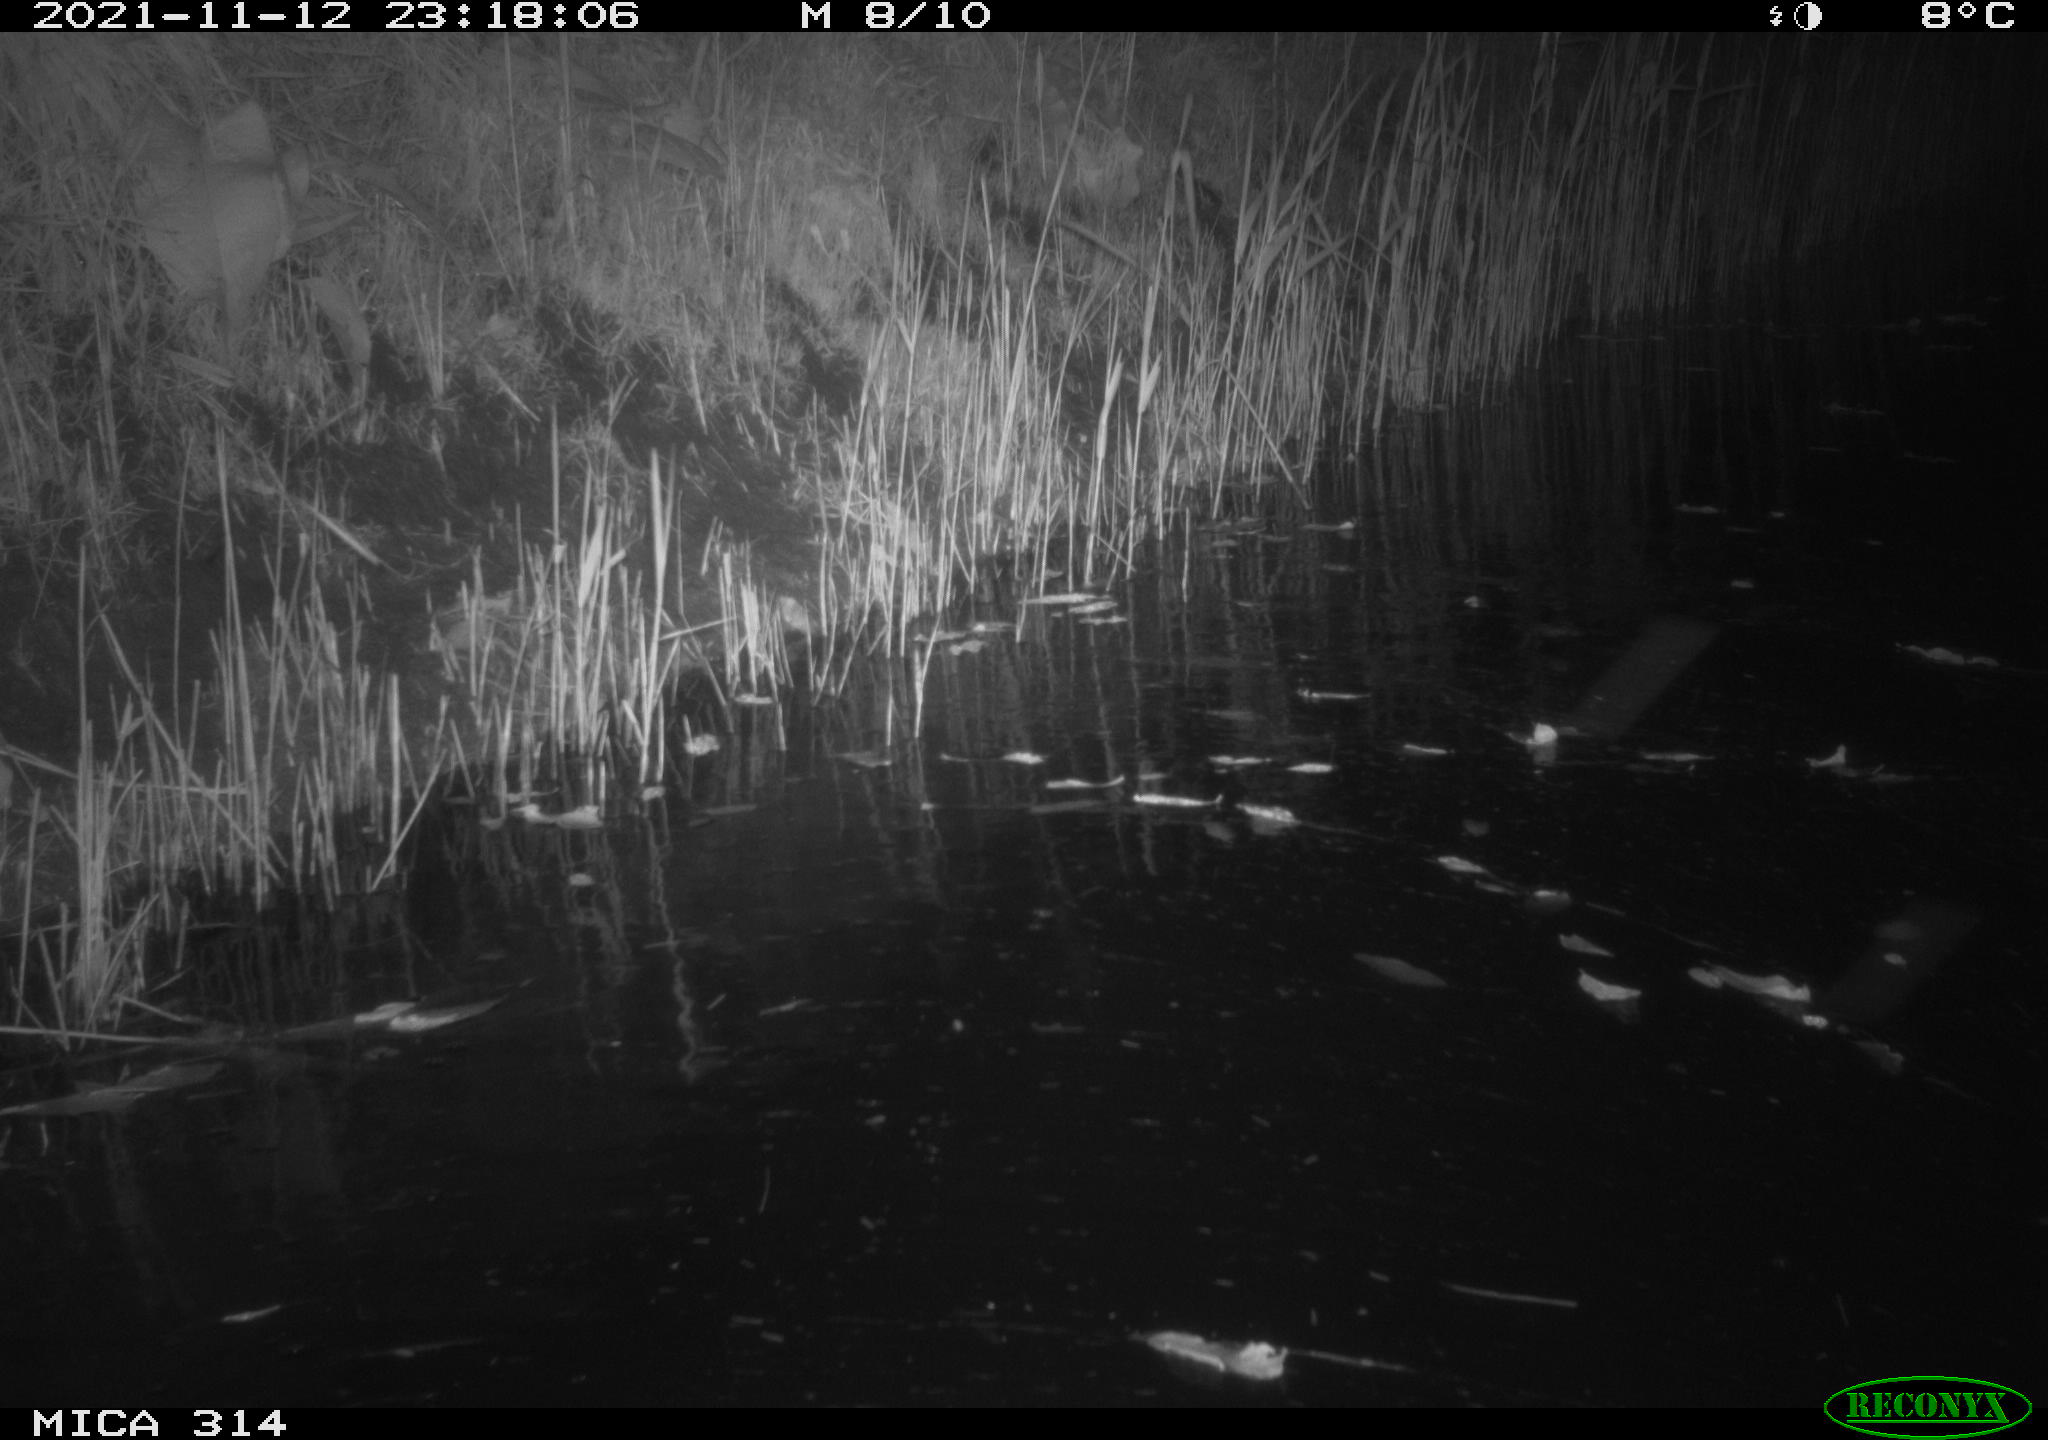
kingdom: Animalia
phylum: Chordata
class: Mammalia
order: Rodentia
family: Muridae
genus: Rattus
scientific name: Rattus norvegicus
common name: Brown rat
